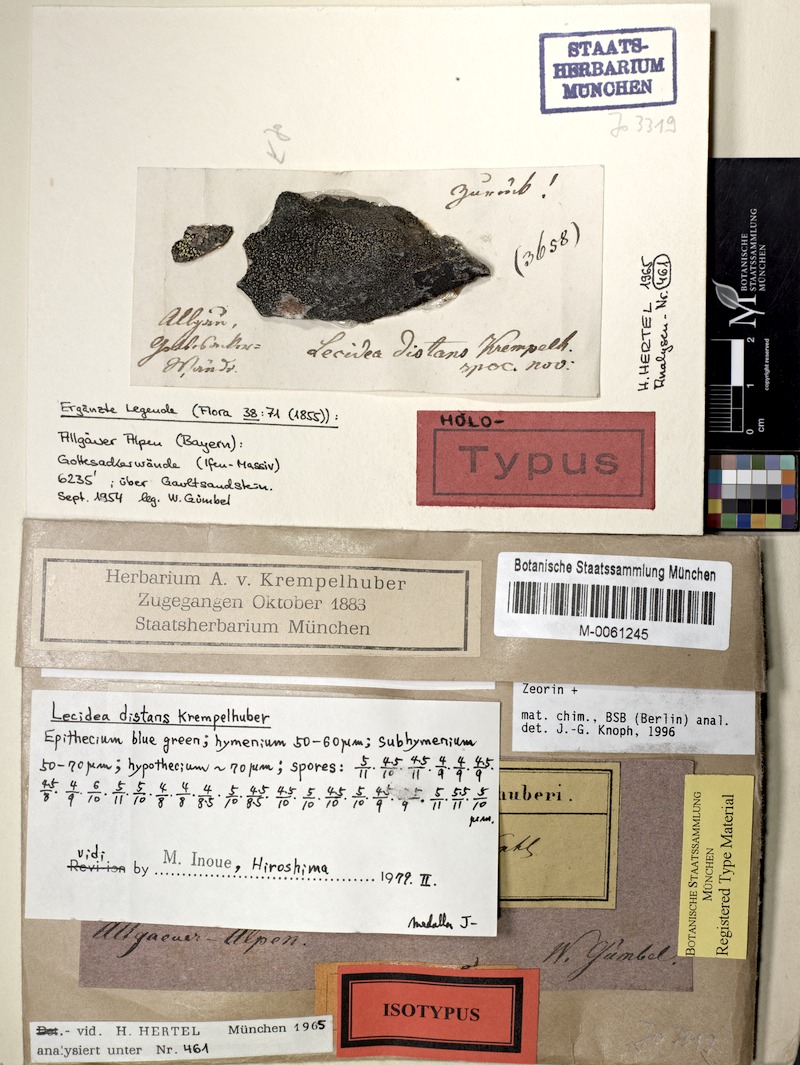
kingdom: Fungi
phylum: Ascomycota
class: Lecanoromycetes
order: Lecanorales
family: Lecanoraceae
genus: Lecanora
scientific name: Lecanora mosigiicola
